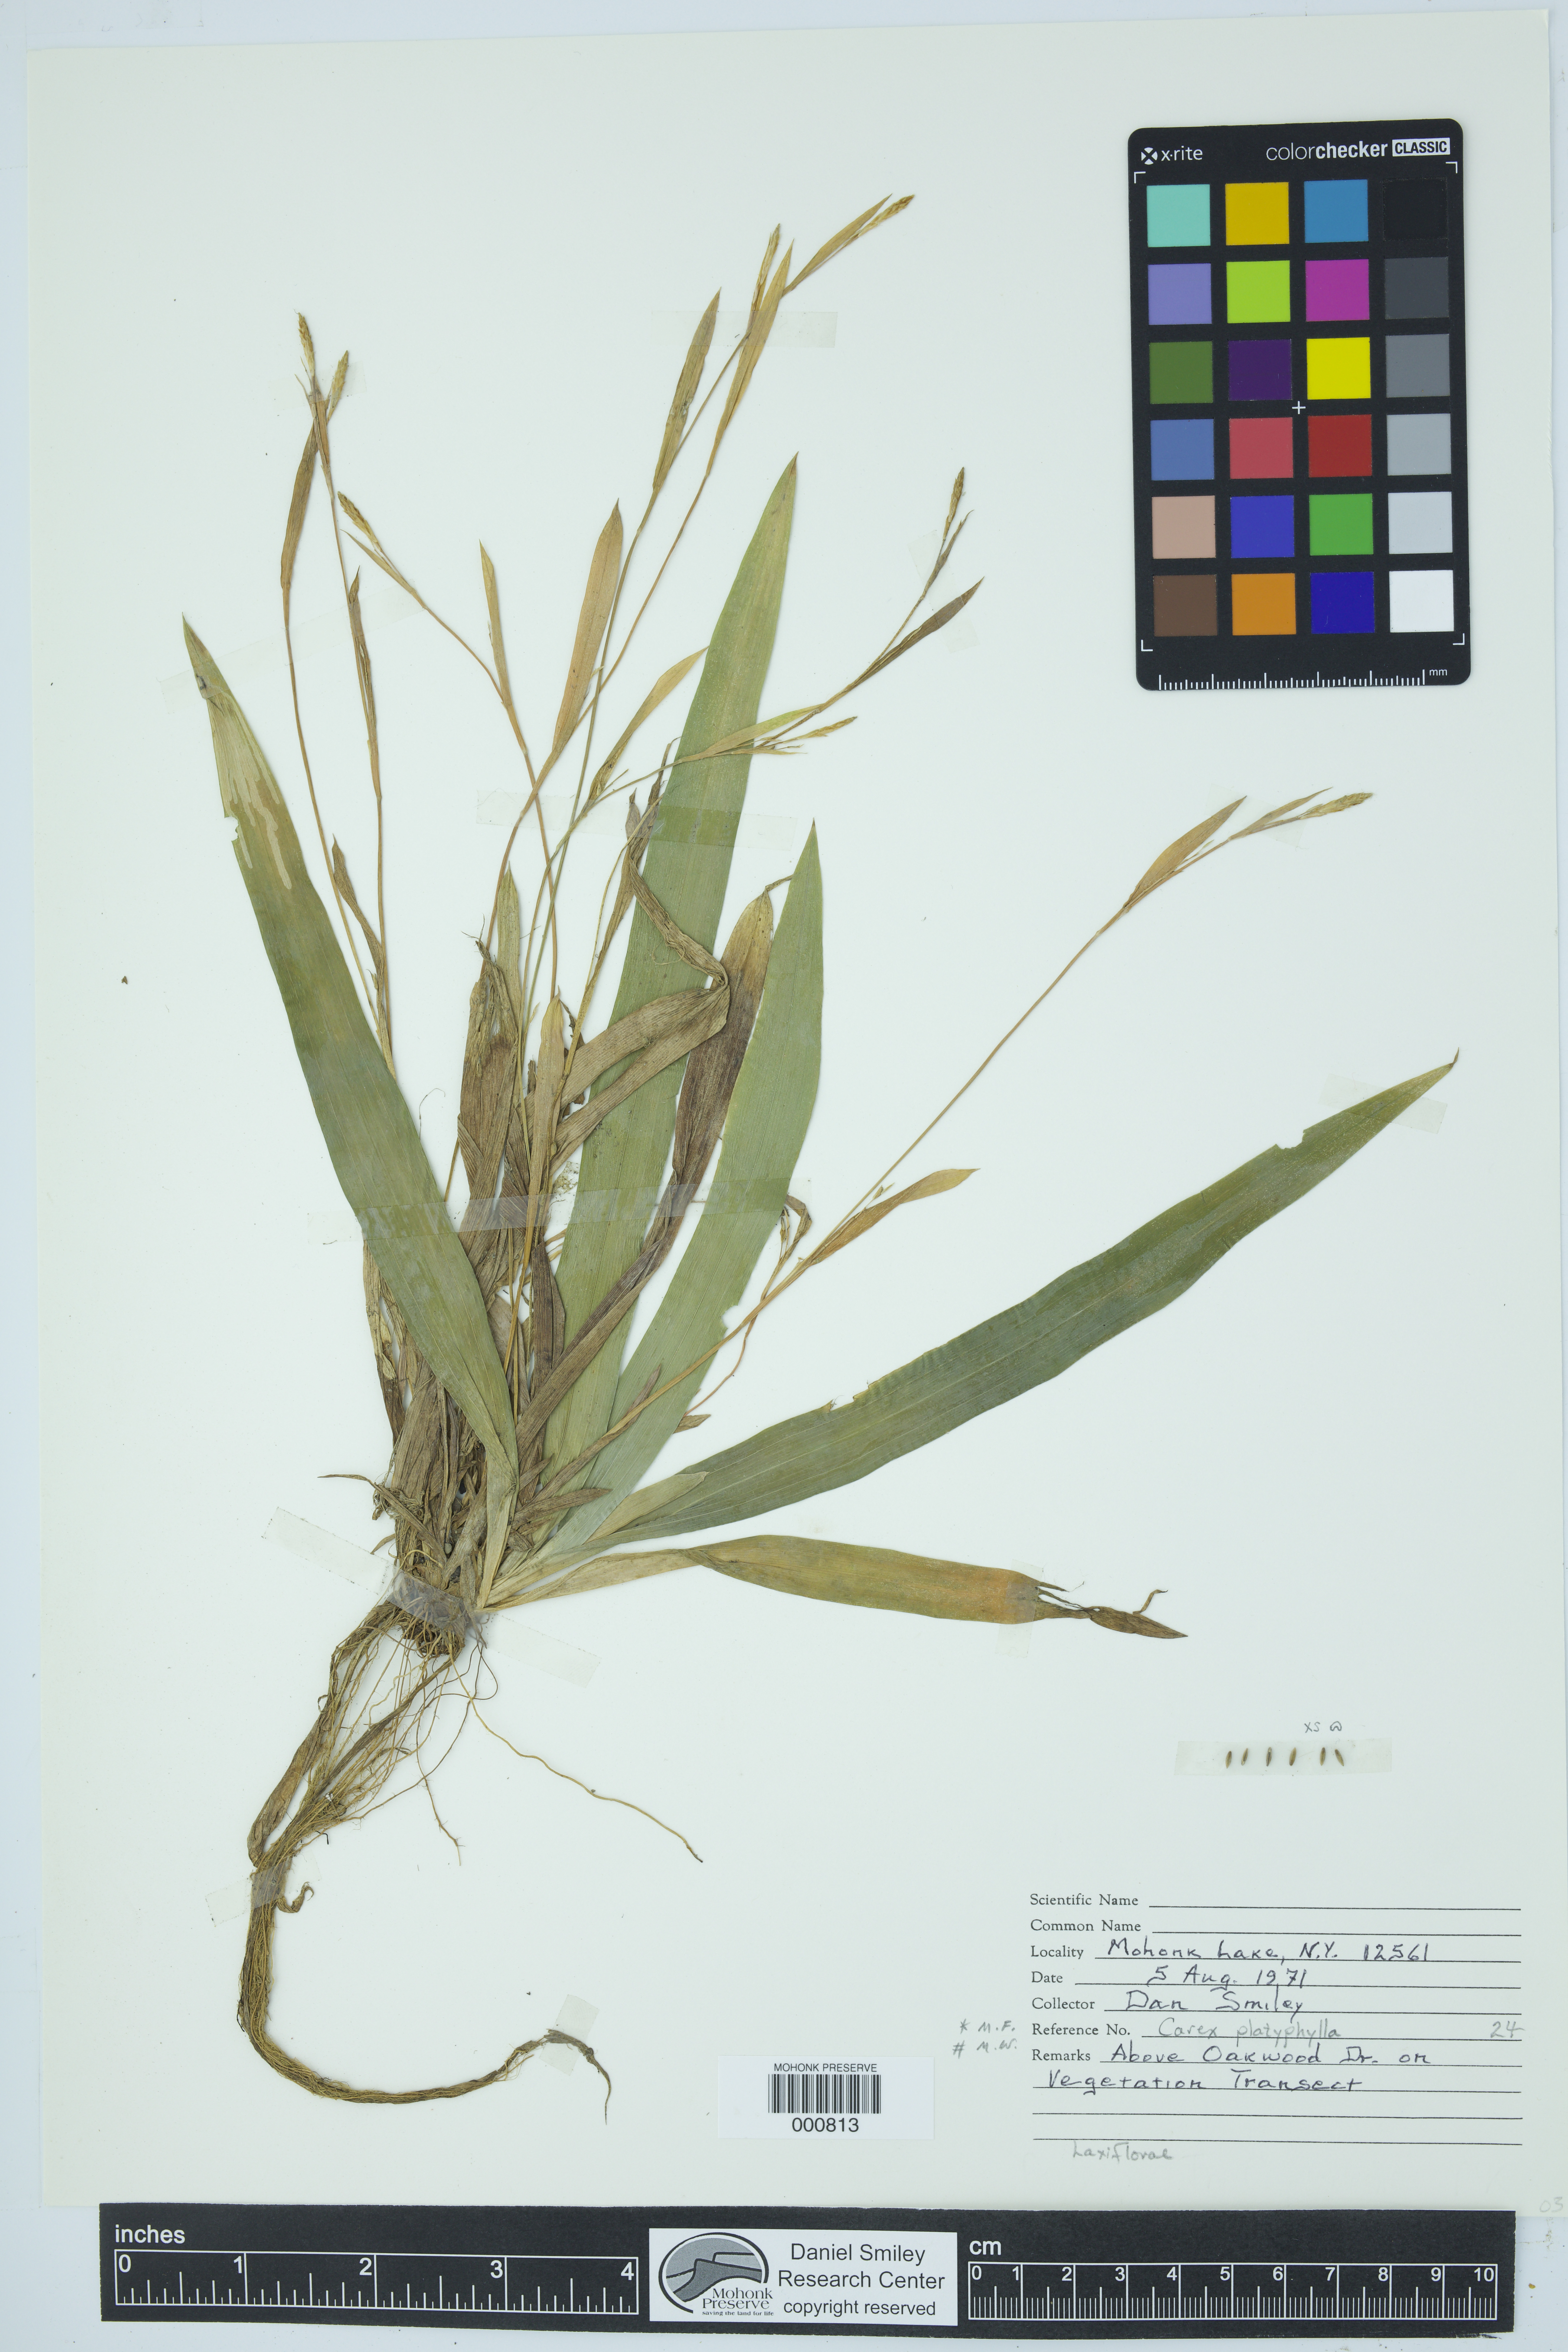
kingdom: Plantae
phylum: Tracheophyta
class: Liliopsida
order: Poales
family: Cyperaceae
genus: Carex
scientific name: Carex platyphylla
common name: Broad-leaved sedge
